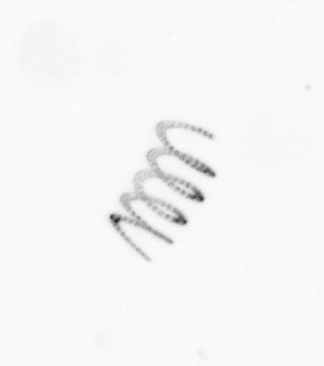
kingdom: Chromista
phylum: Ochrophyta
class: Bacillariophyceae
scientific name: Bacillariophyceae
